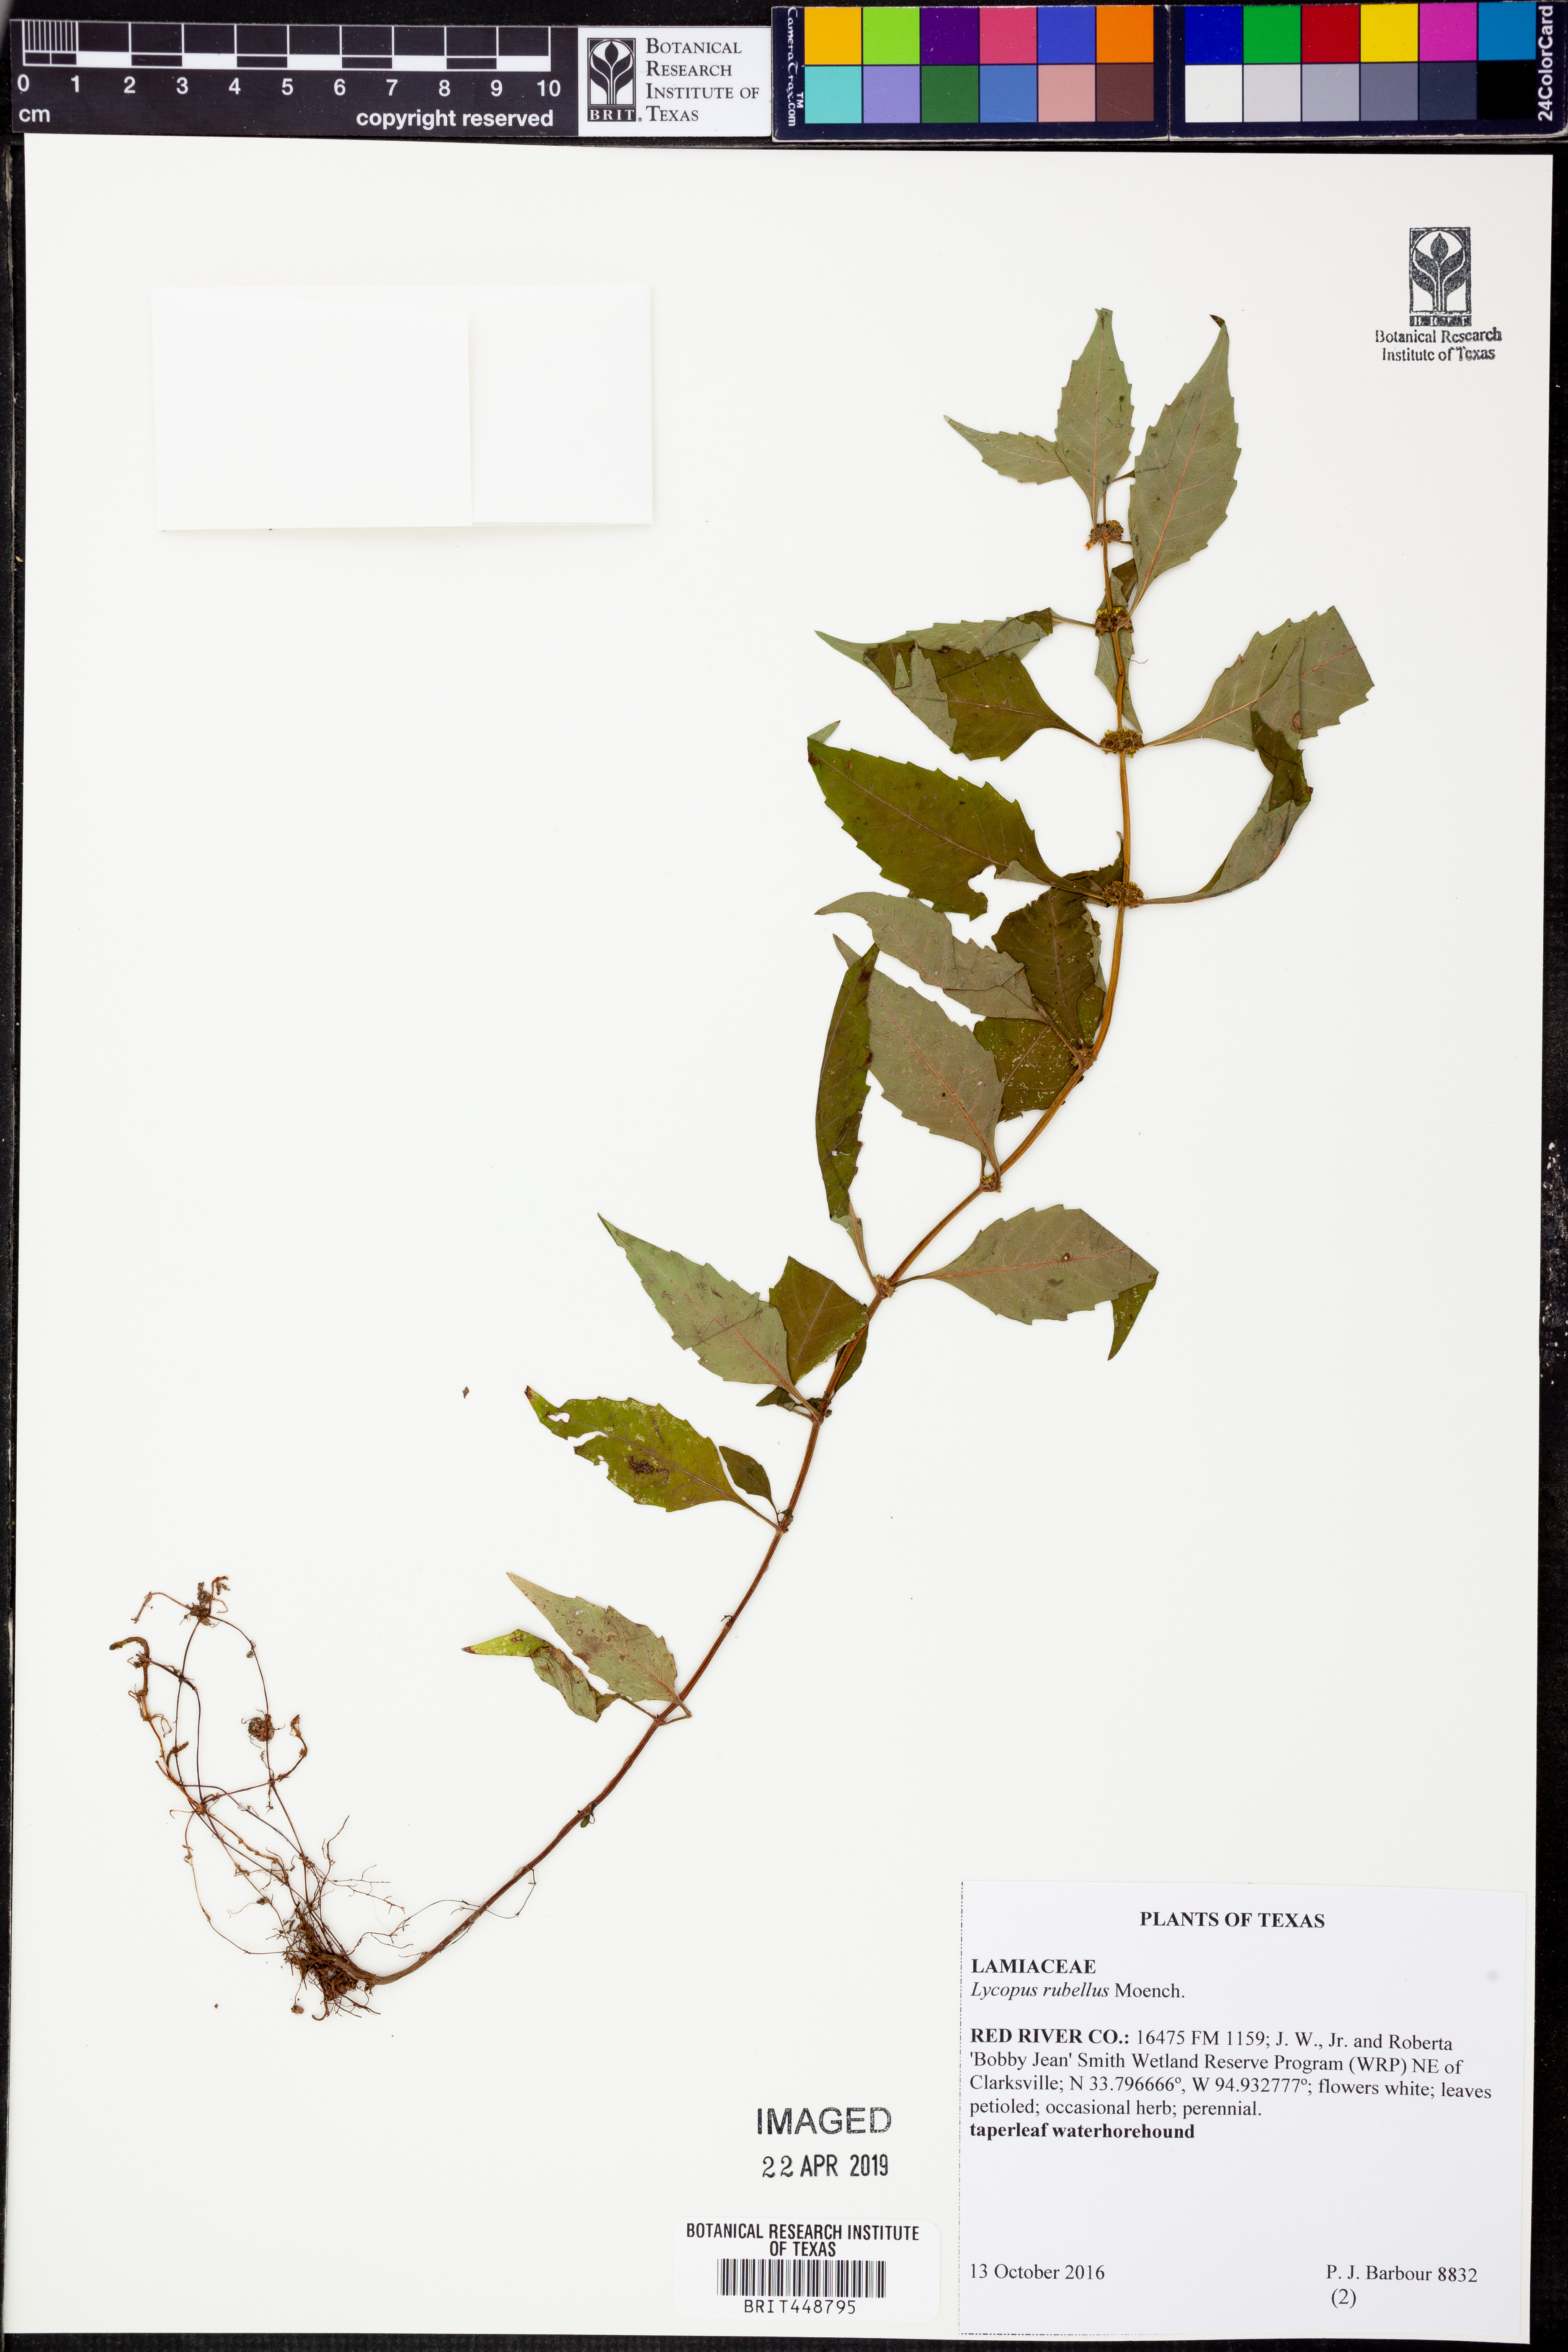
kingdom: Plantae
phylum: Tracheophyta
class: Magnoliopsida
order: Lamiales
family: Lamiaceae
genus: Lycopus
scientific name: Lycopus rubellus
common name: Stalked bugleweed
